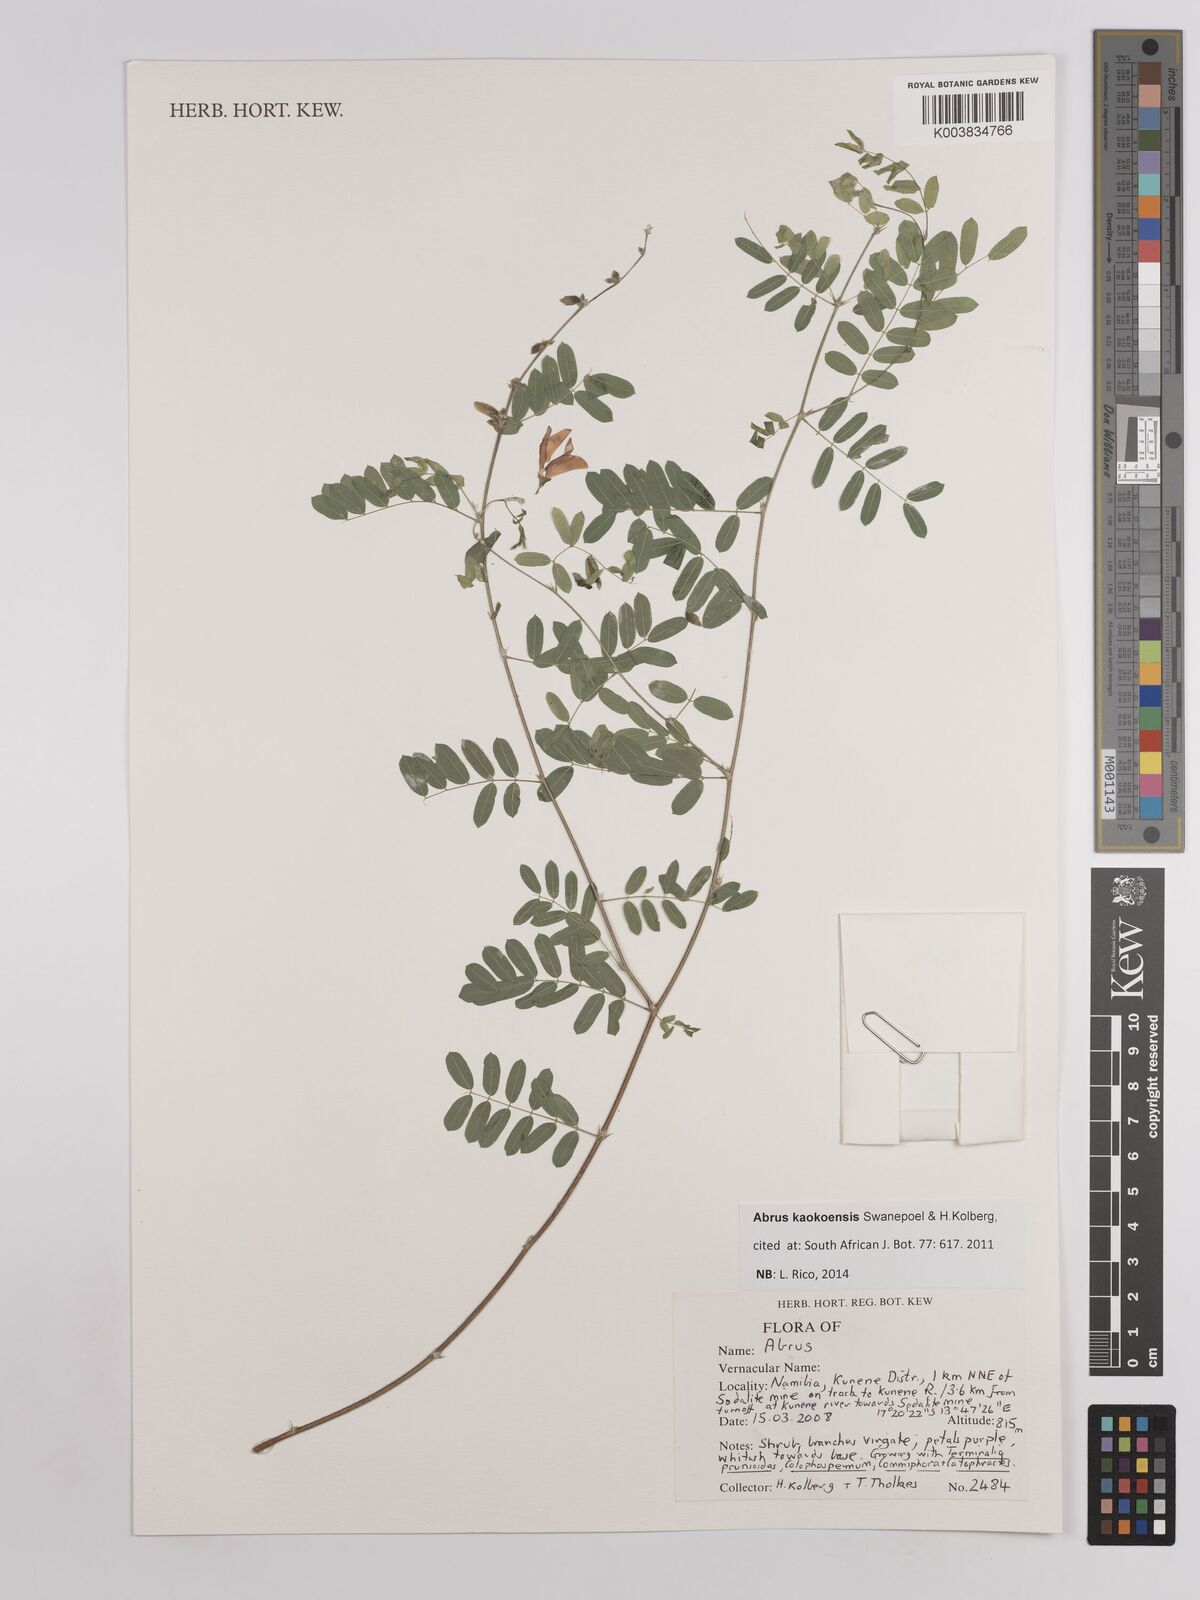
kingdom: Plantae
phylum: Tracheophyta
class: Magnoliopsida
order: Fabales
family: Fabaceae
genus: Abrus
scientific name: Abrus kaokoensis
